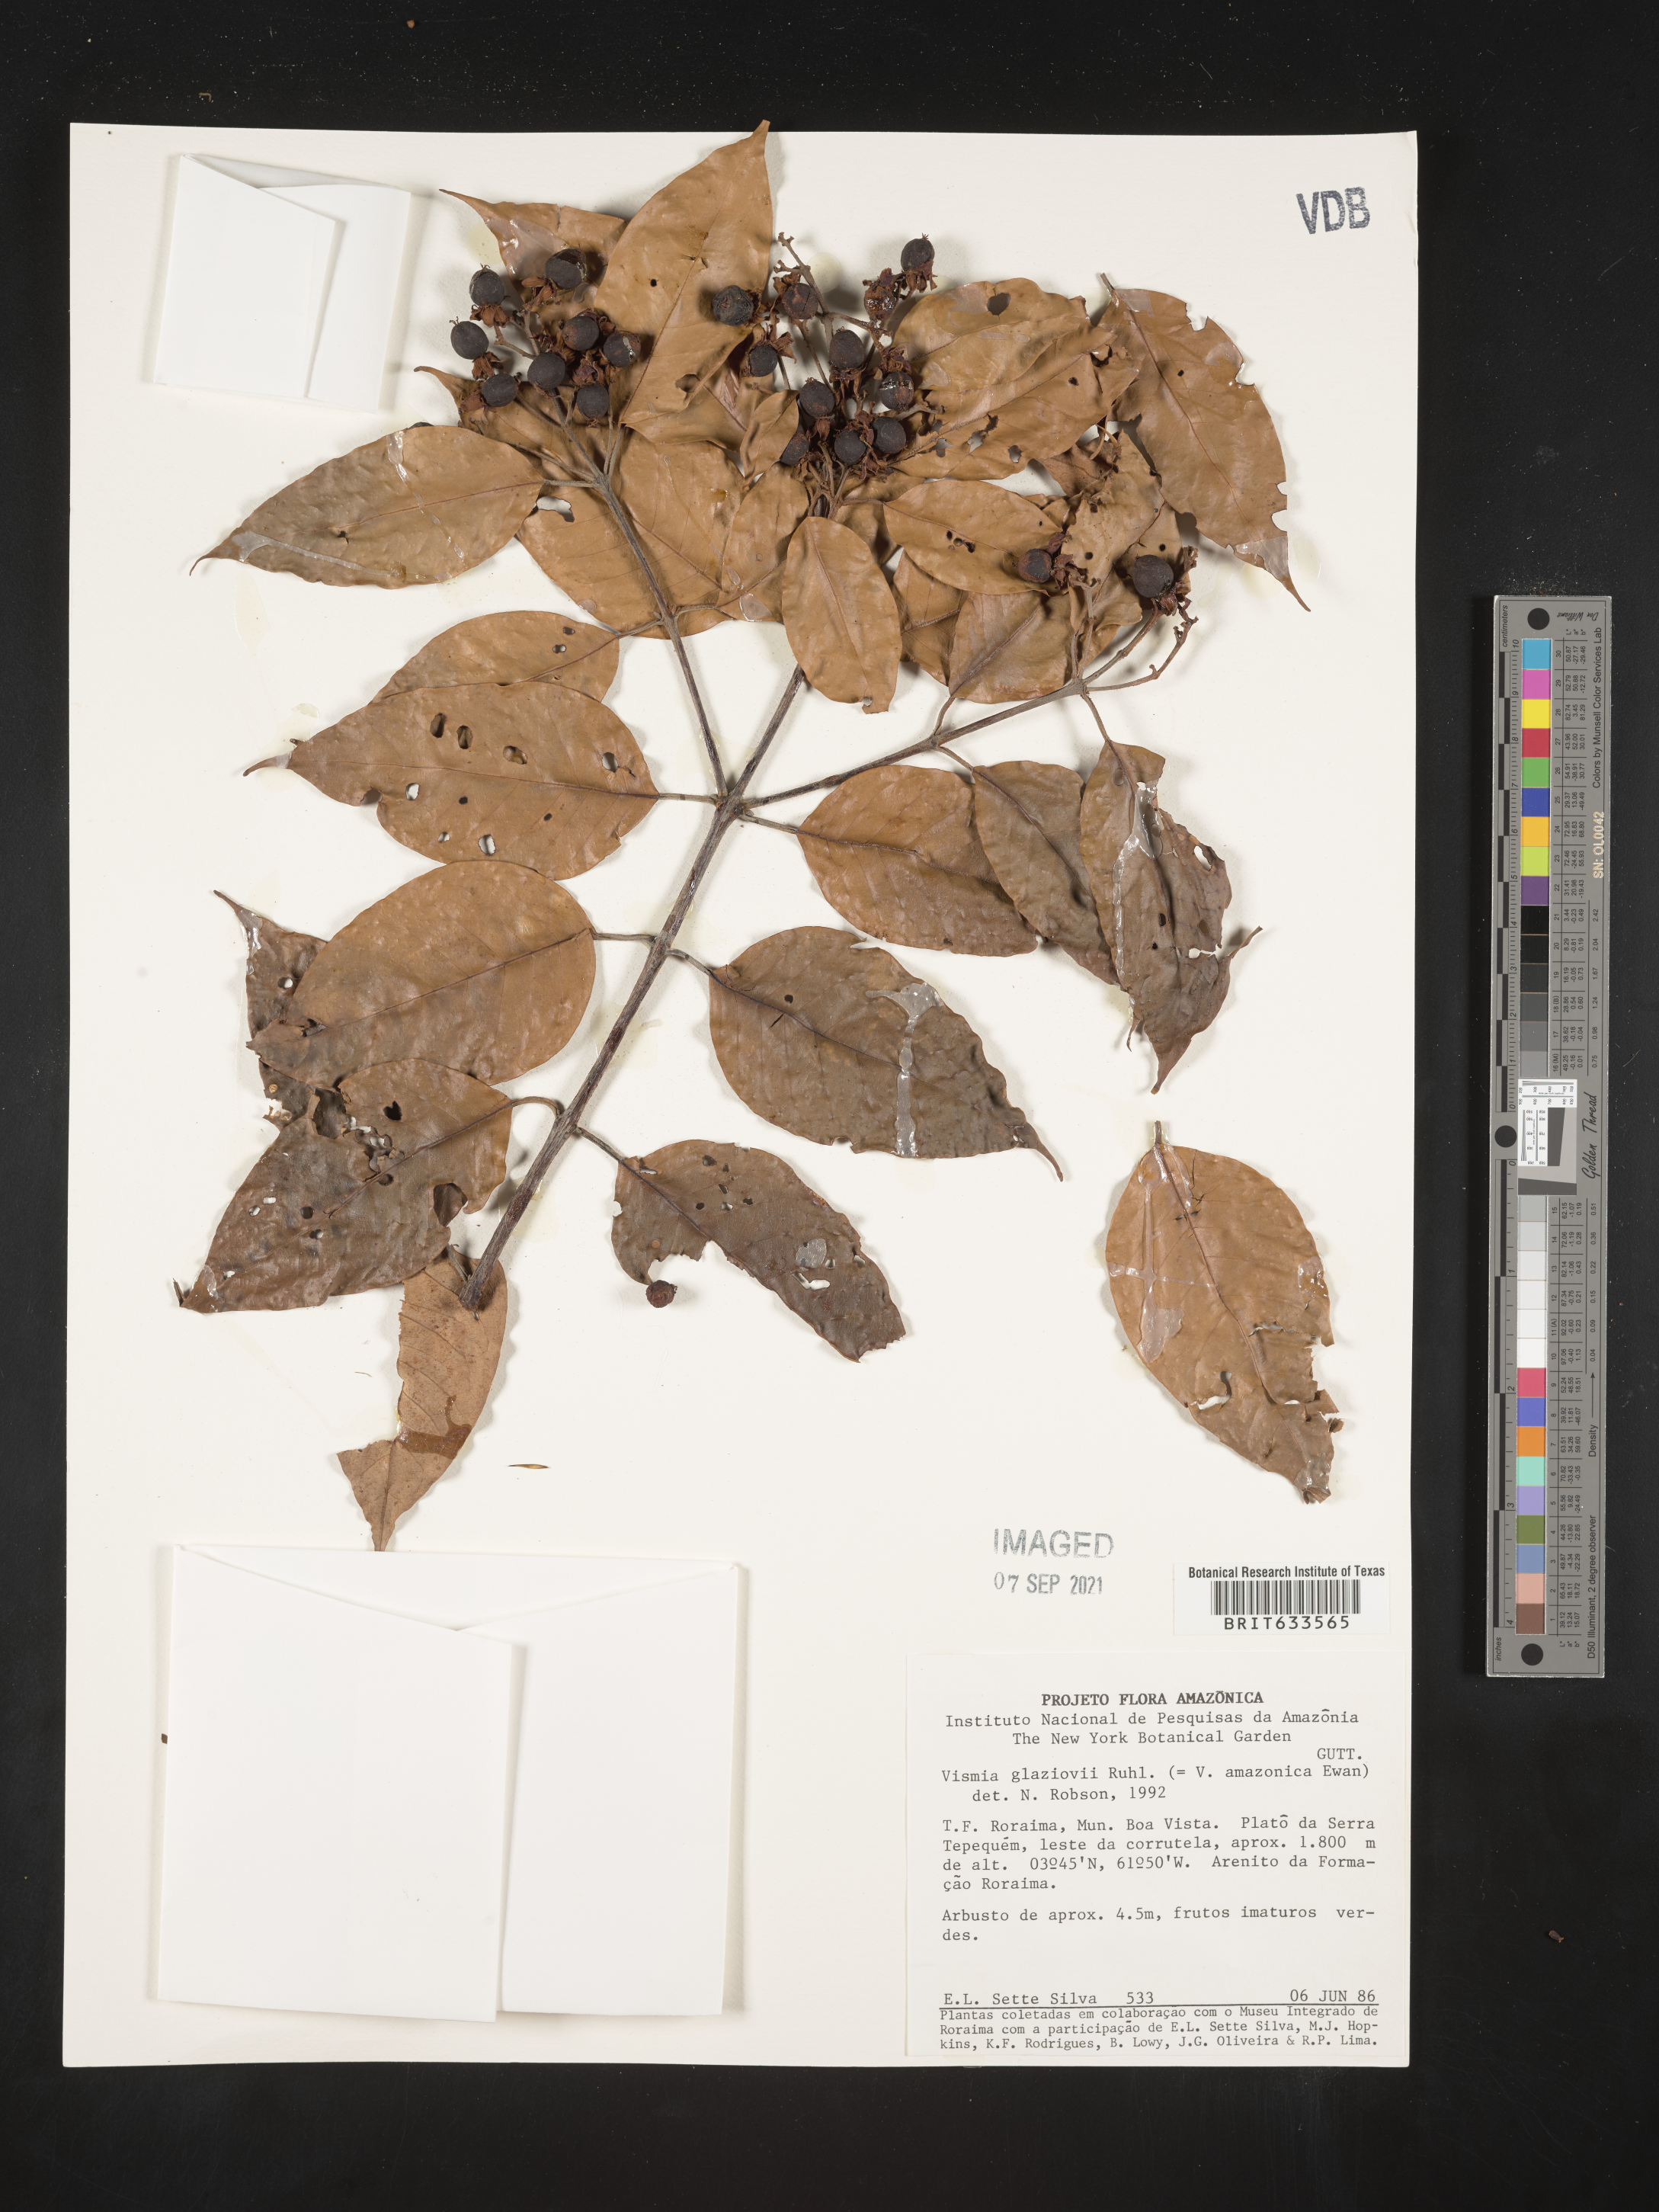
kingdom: Plantae
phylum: Tracheophyta
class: Magnoliopsida
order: Malpighiales
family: Hypericaceae
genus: Vismia
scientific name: Vismia
